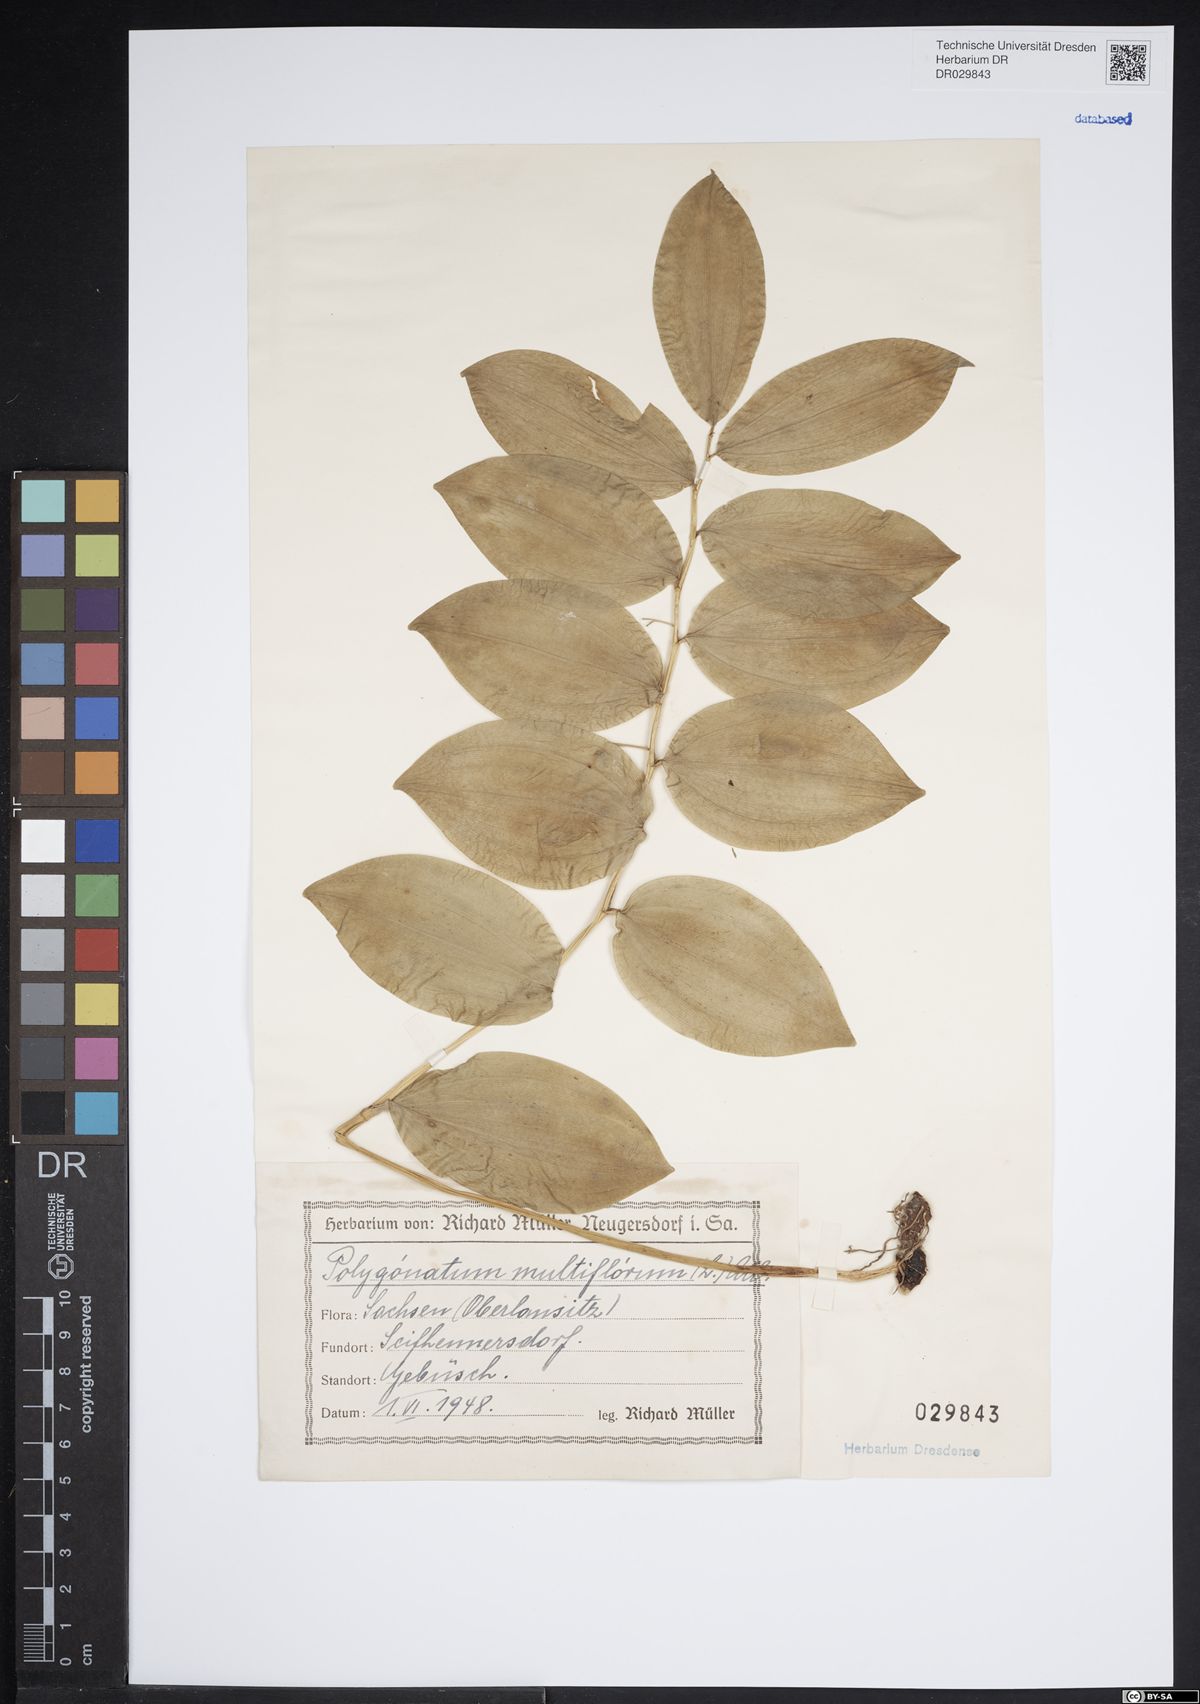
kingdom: Plantae
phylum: Tracheophyta
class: Liliopsida
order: Asparagales
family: Asparagaceae
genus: Polygonatum
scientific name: Polygonatum odoratum
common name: Angular solomon's-seal
